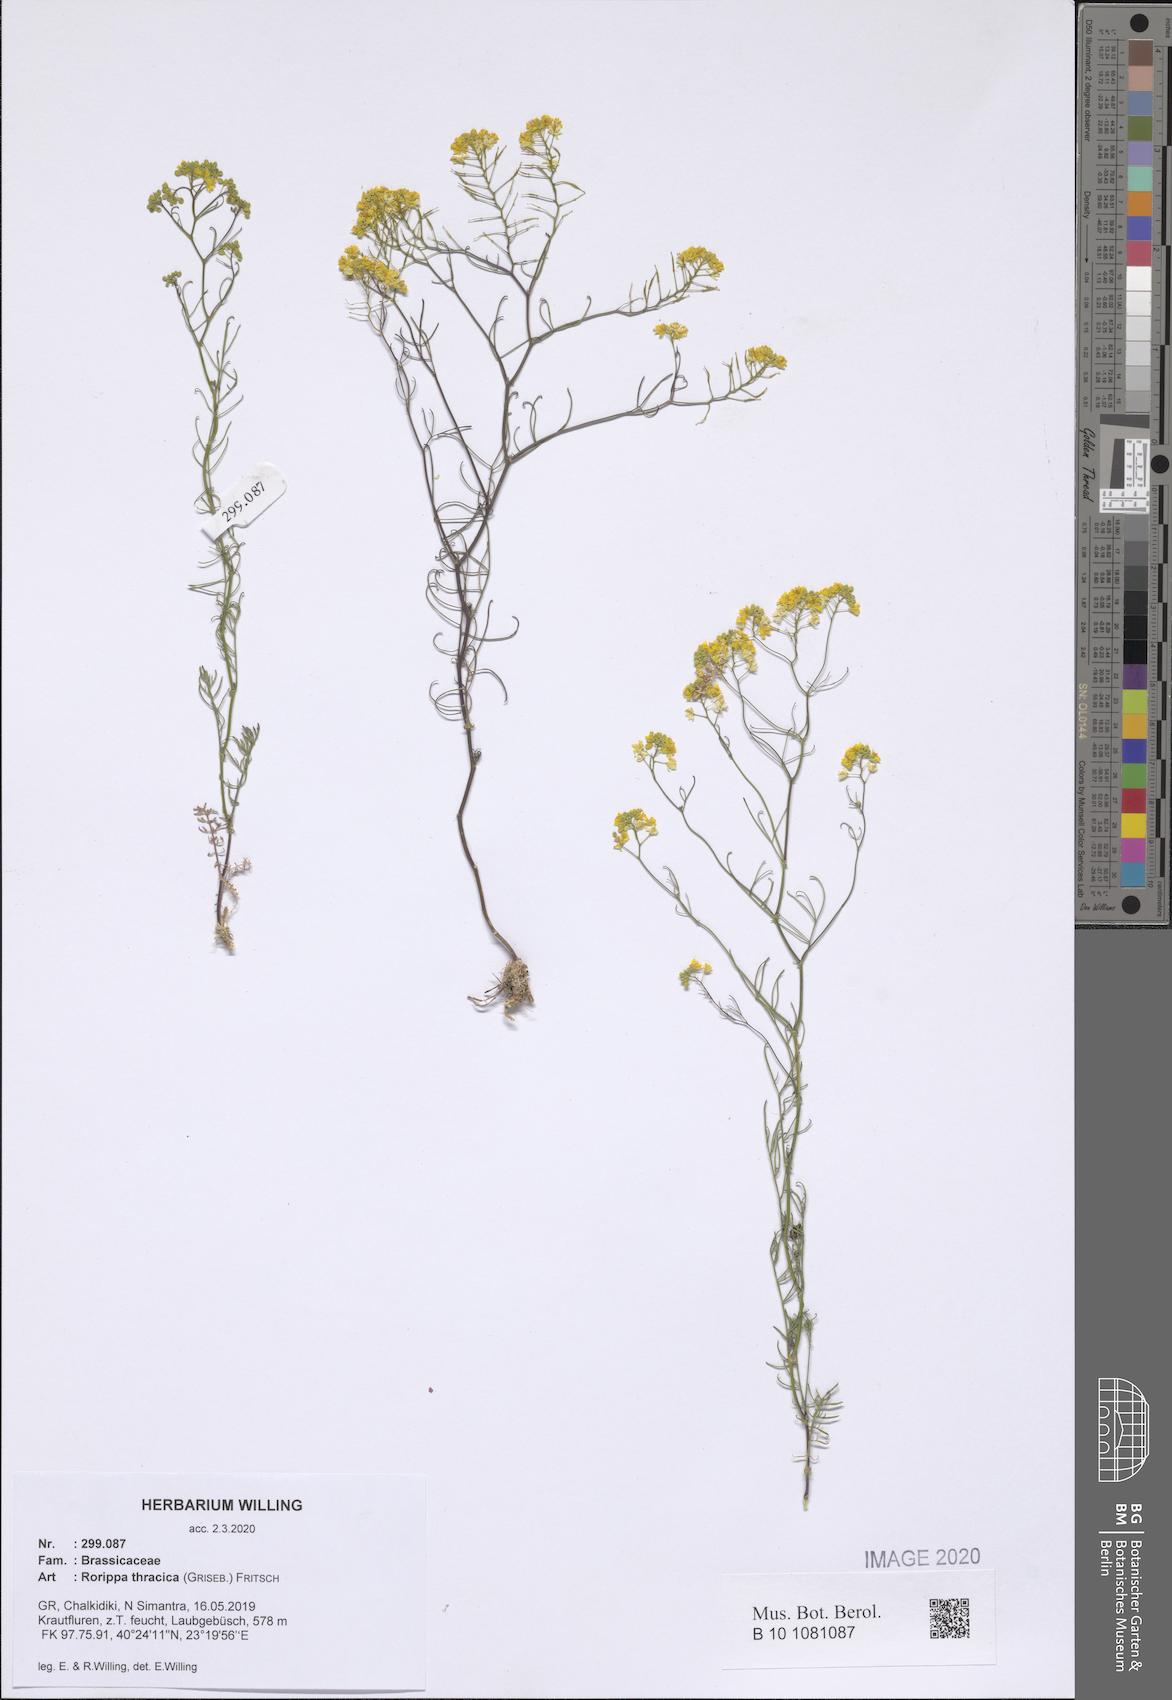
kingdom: Plantae
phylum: Tracheophyta
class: Magnoliopsida
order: Brassicales
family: Brassicaceae
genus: Rorippa
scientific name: Rorippa lippizensis
